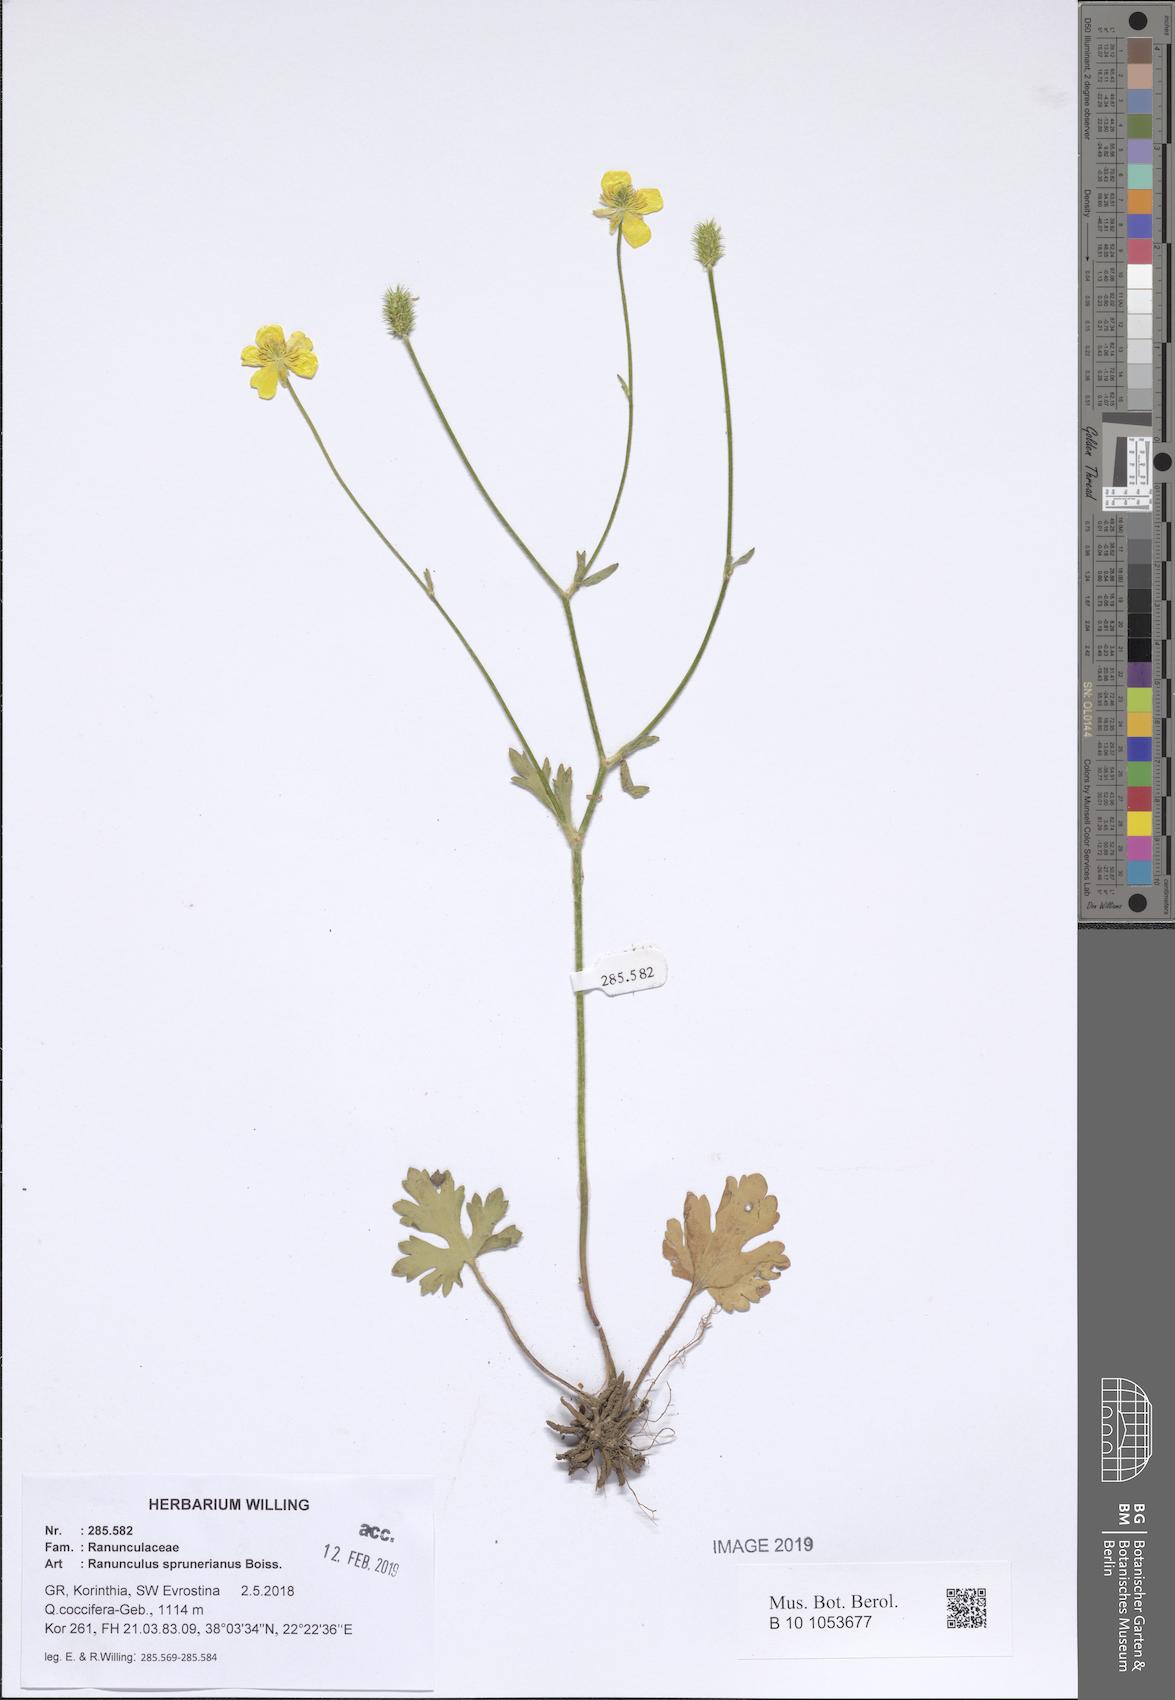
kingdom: Plantae
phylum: Tracheophyta
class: Magnoliopsida
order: Ranunculales
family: Ranunculaceae
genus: Ranunculus
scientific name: Ranunculus sprunerianus
